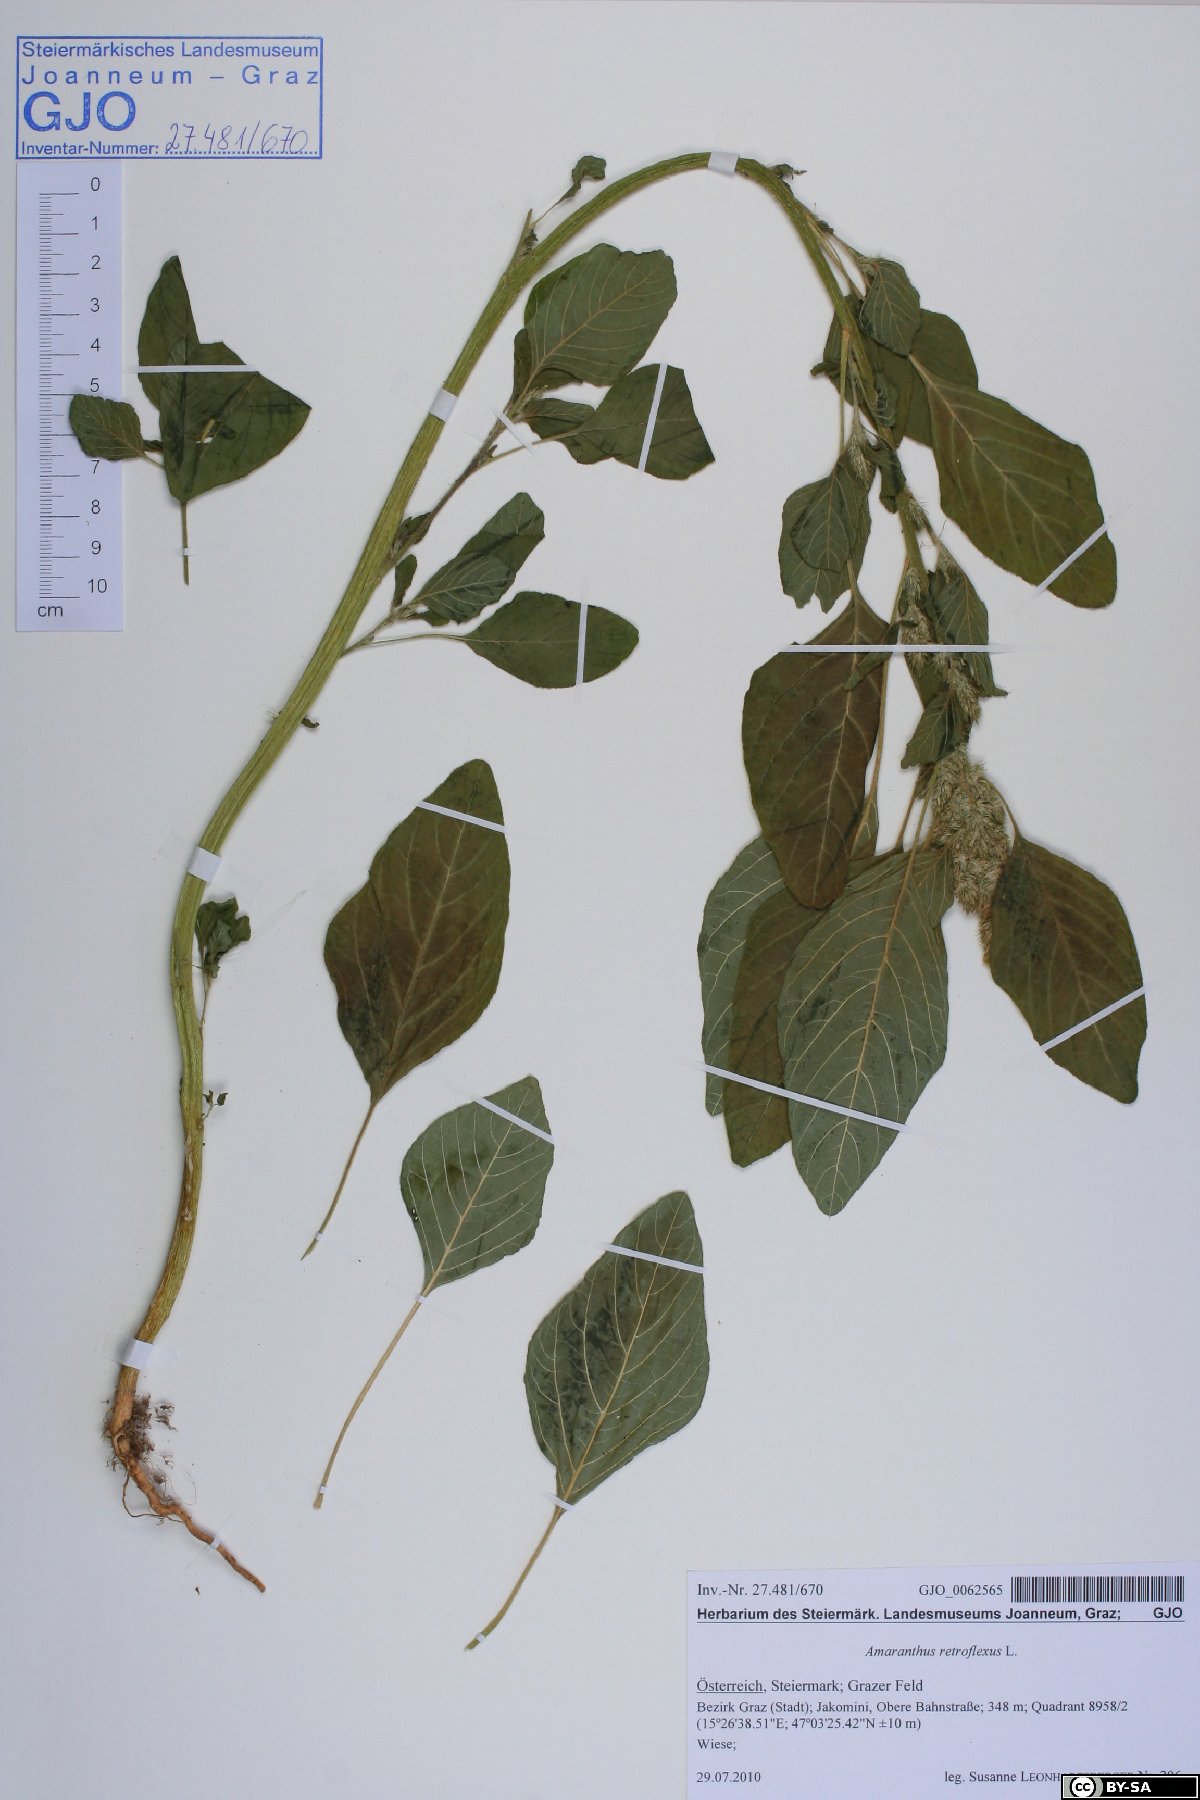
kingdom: Plantae
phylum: Tracheophyta
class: Magnoliopsida
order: Caryophyllales
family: Amaranthaceae
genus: Amaranthus
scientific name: Amaranthus retroflexus
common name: Redroot amaranth
